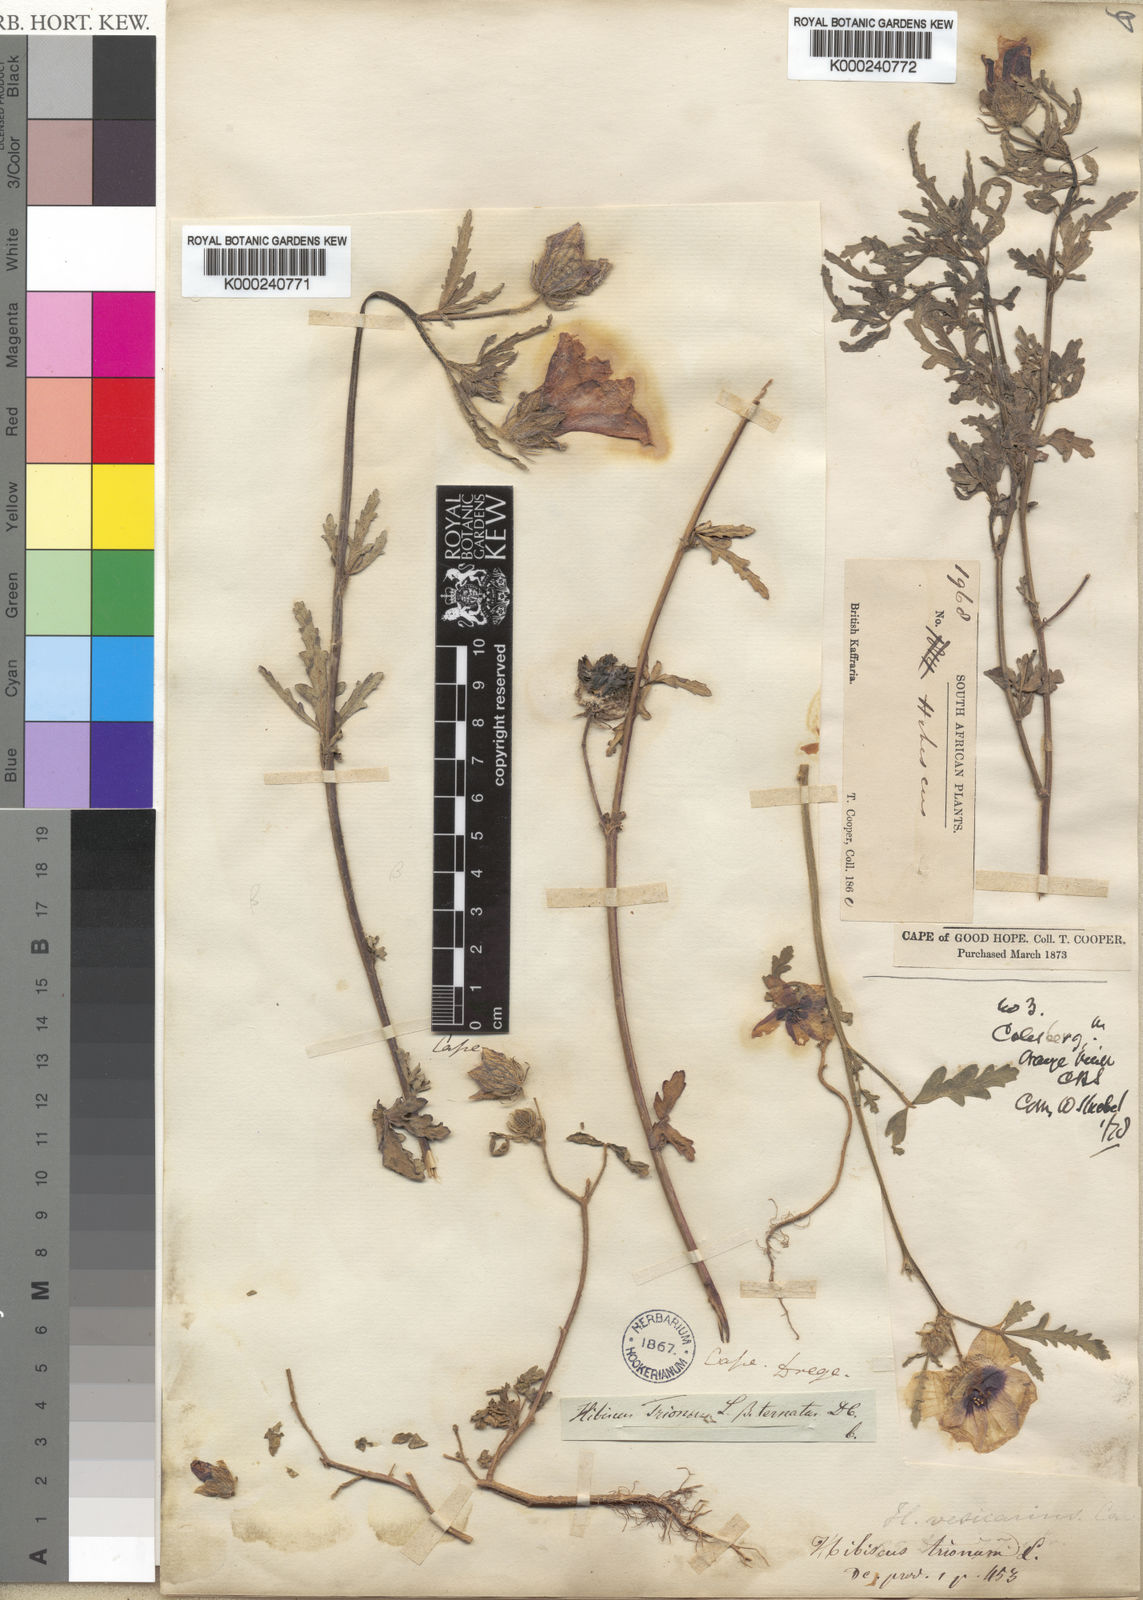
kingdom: Plantae
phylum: Tracheophyta
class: Magnoliopsida
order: Malvales
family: Malvaceae
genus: Hibiscus
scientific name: Hibiscus trionum
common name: Bladder ketmia
